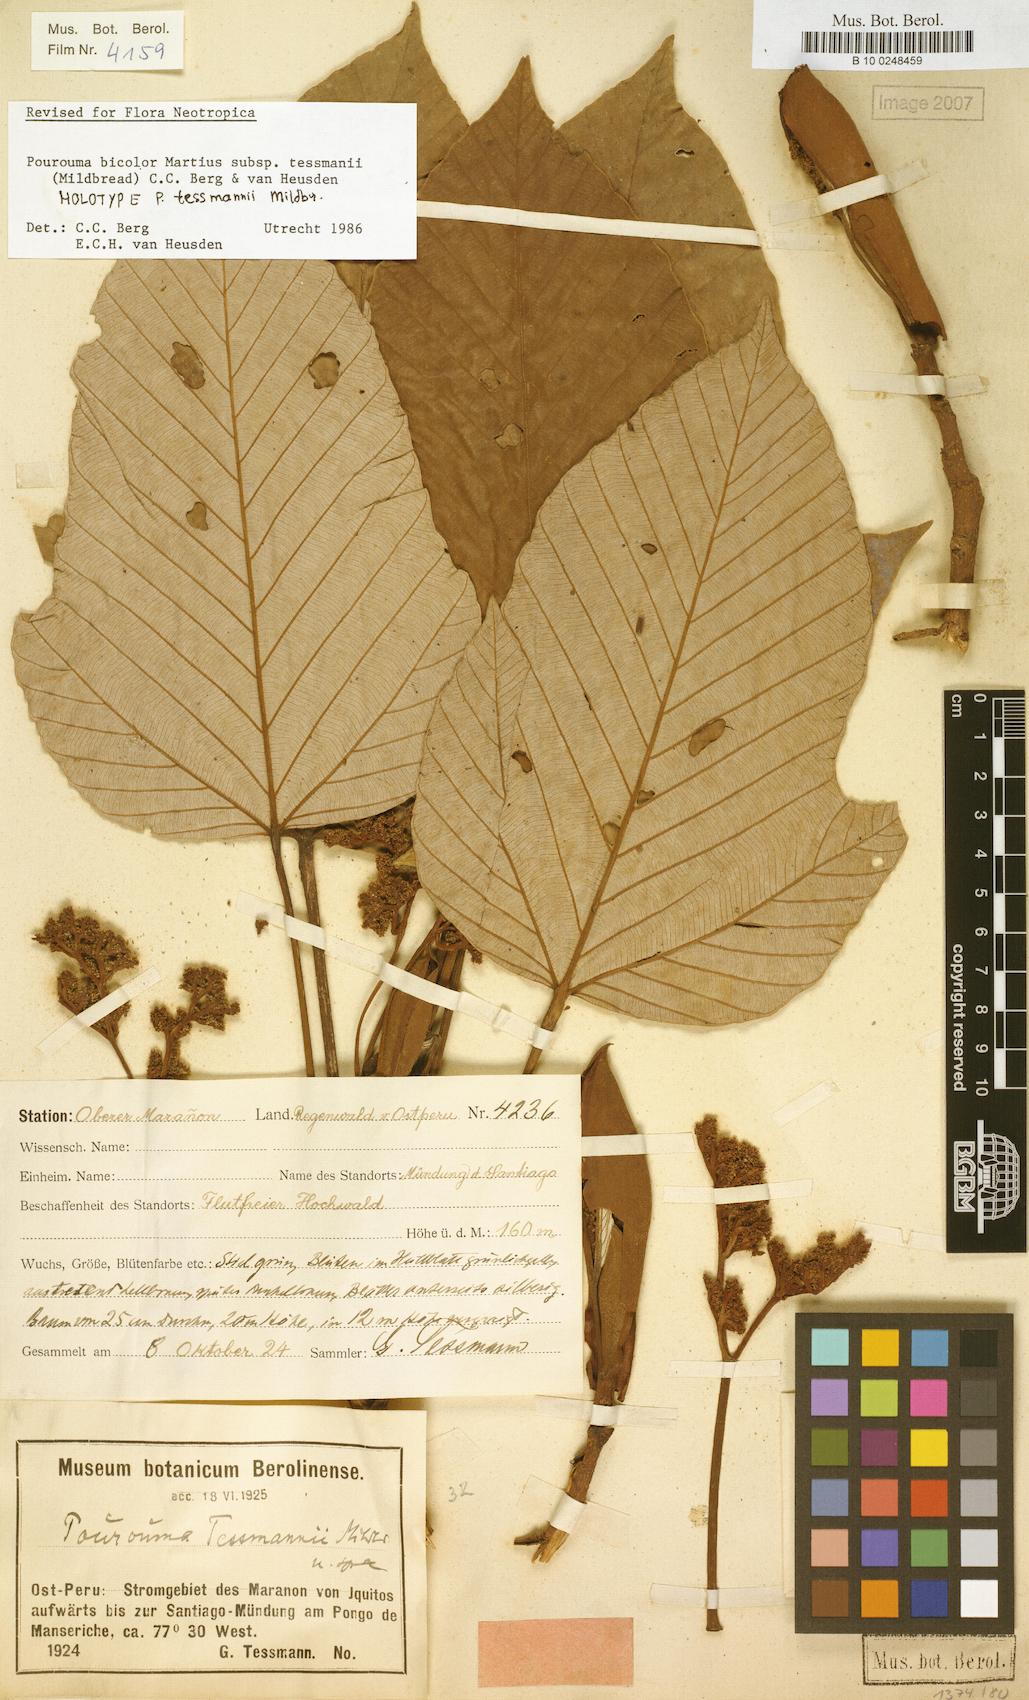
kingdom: Plantae
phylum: Tracheophyta
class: Magnoliopsida
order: Rosales
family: Urticaceae
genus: Pourouma
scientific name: Pourouma bicolor
